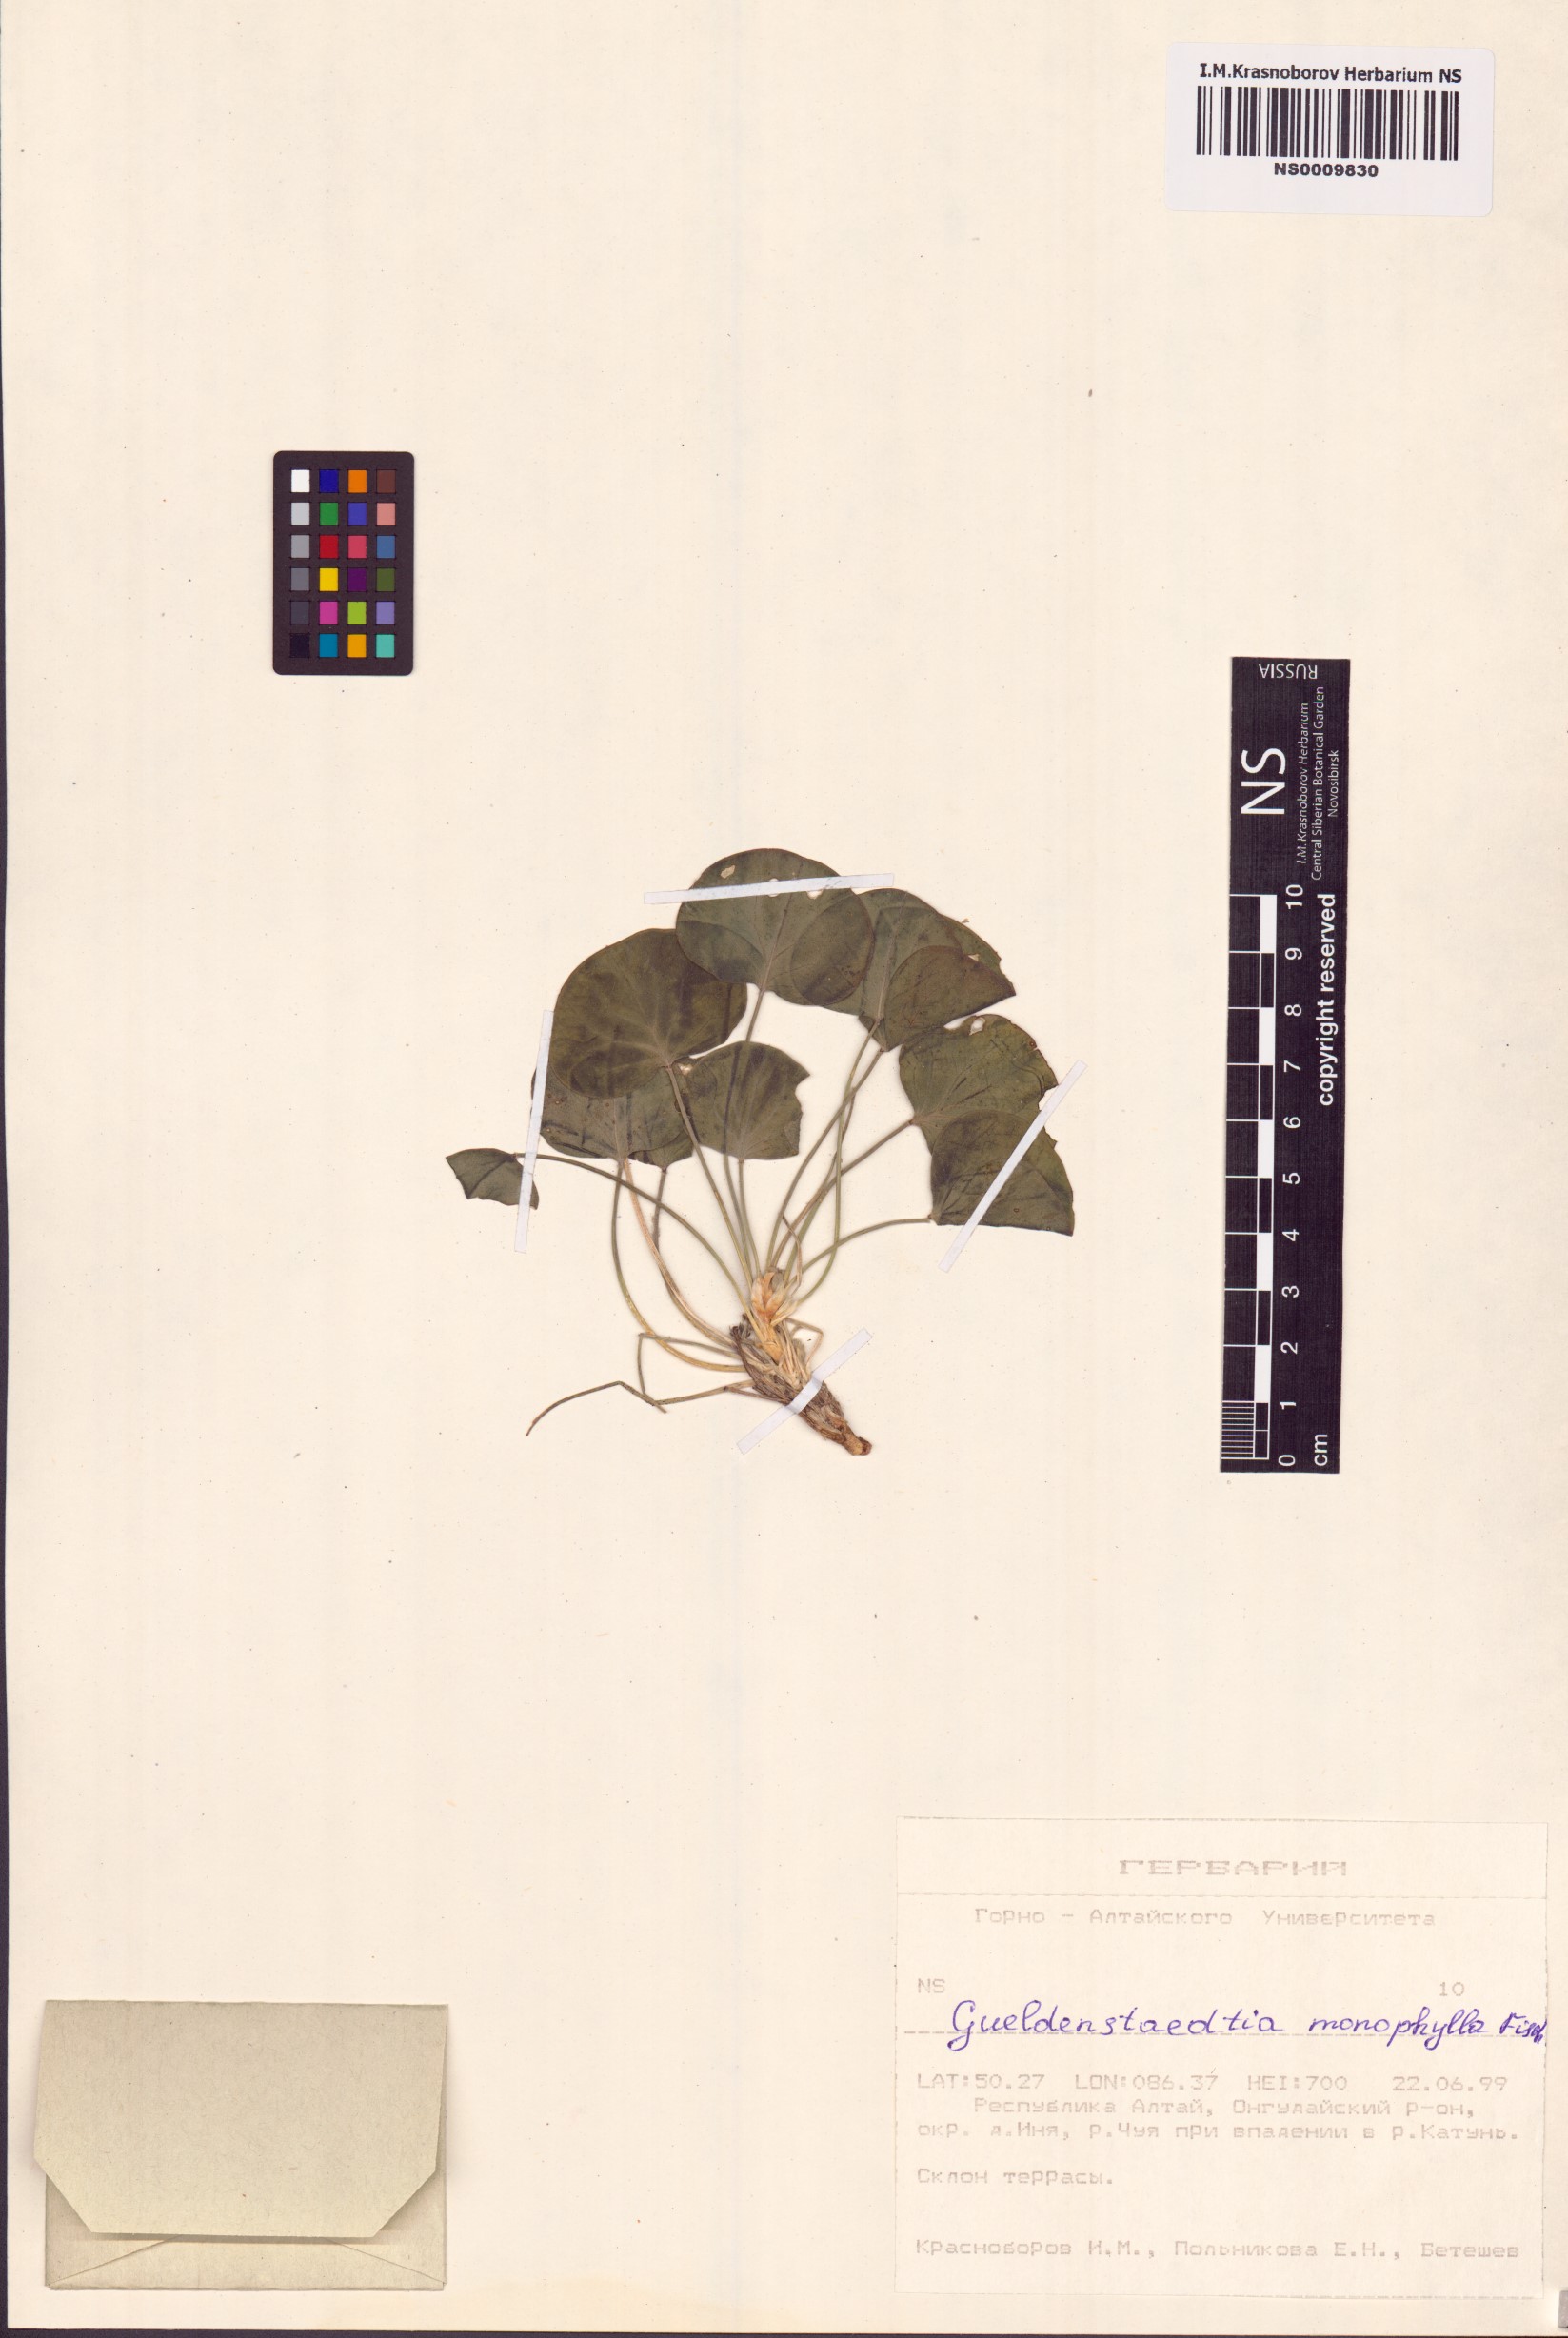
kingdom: Plantae
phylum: Tracheophyta
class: Magnoliopsida
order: Fabales
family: Fabaceae
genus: Gueldenstaedtia
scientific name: Gueldenstaedtia monophylla
